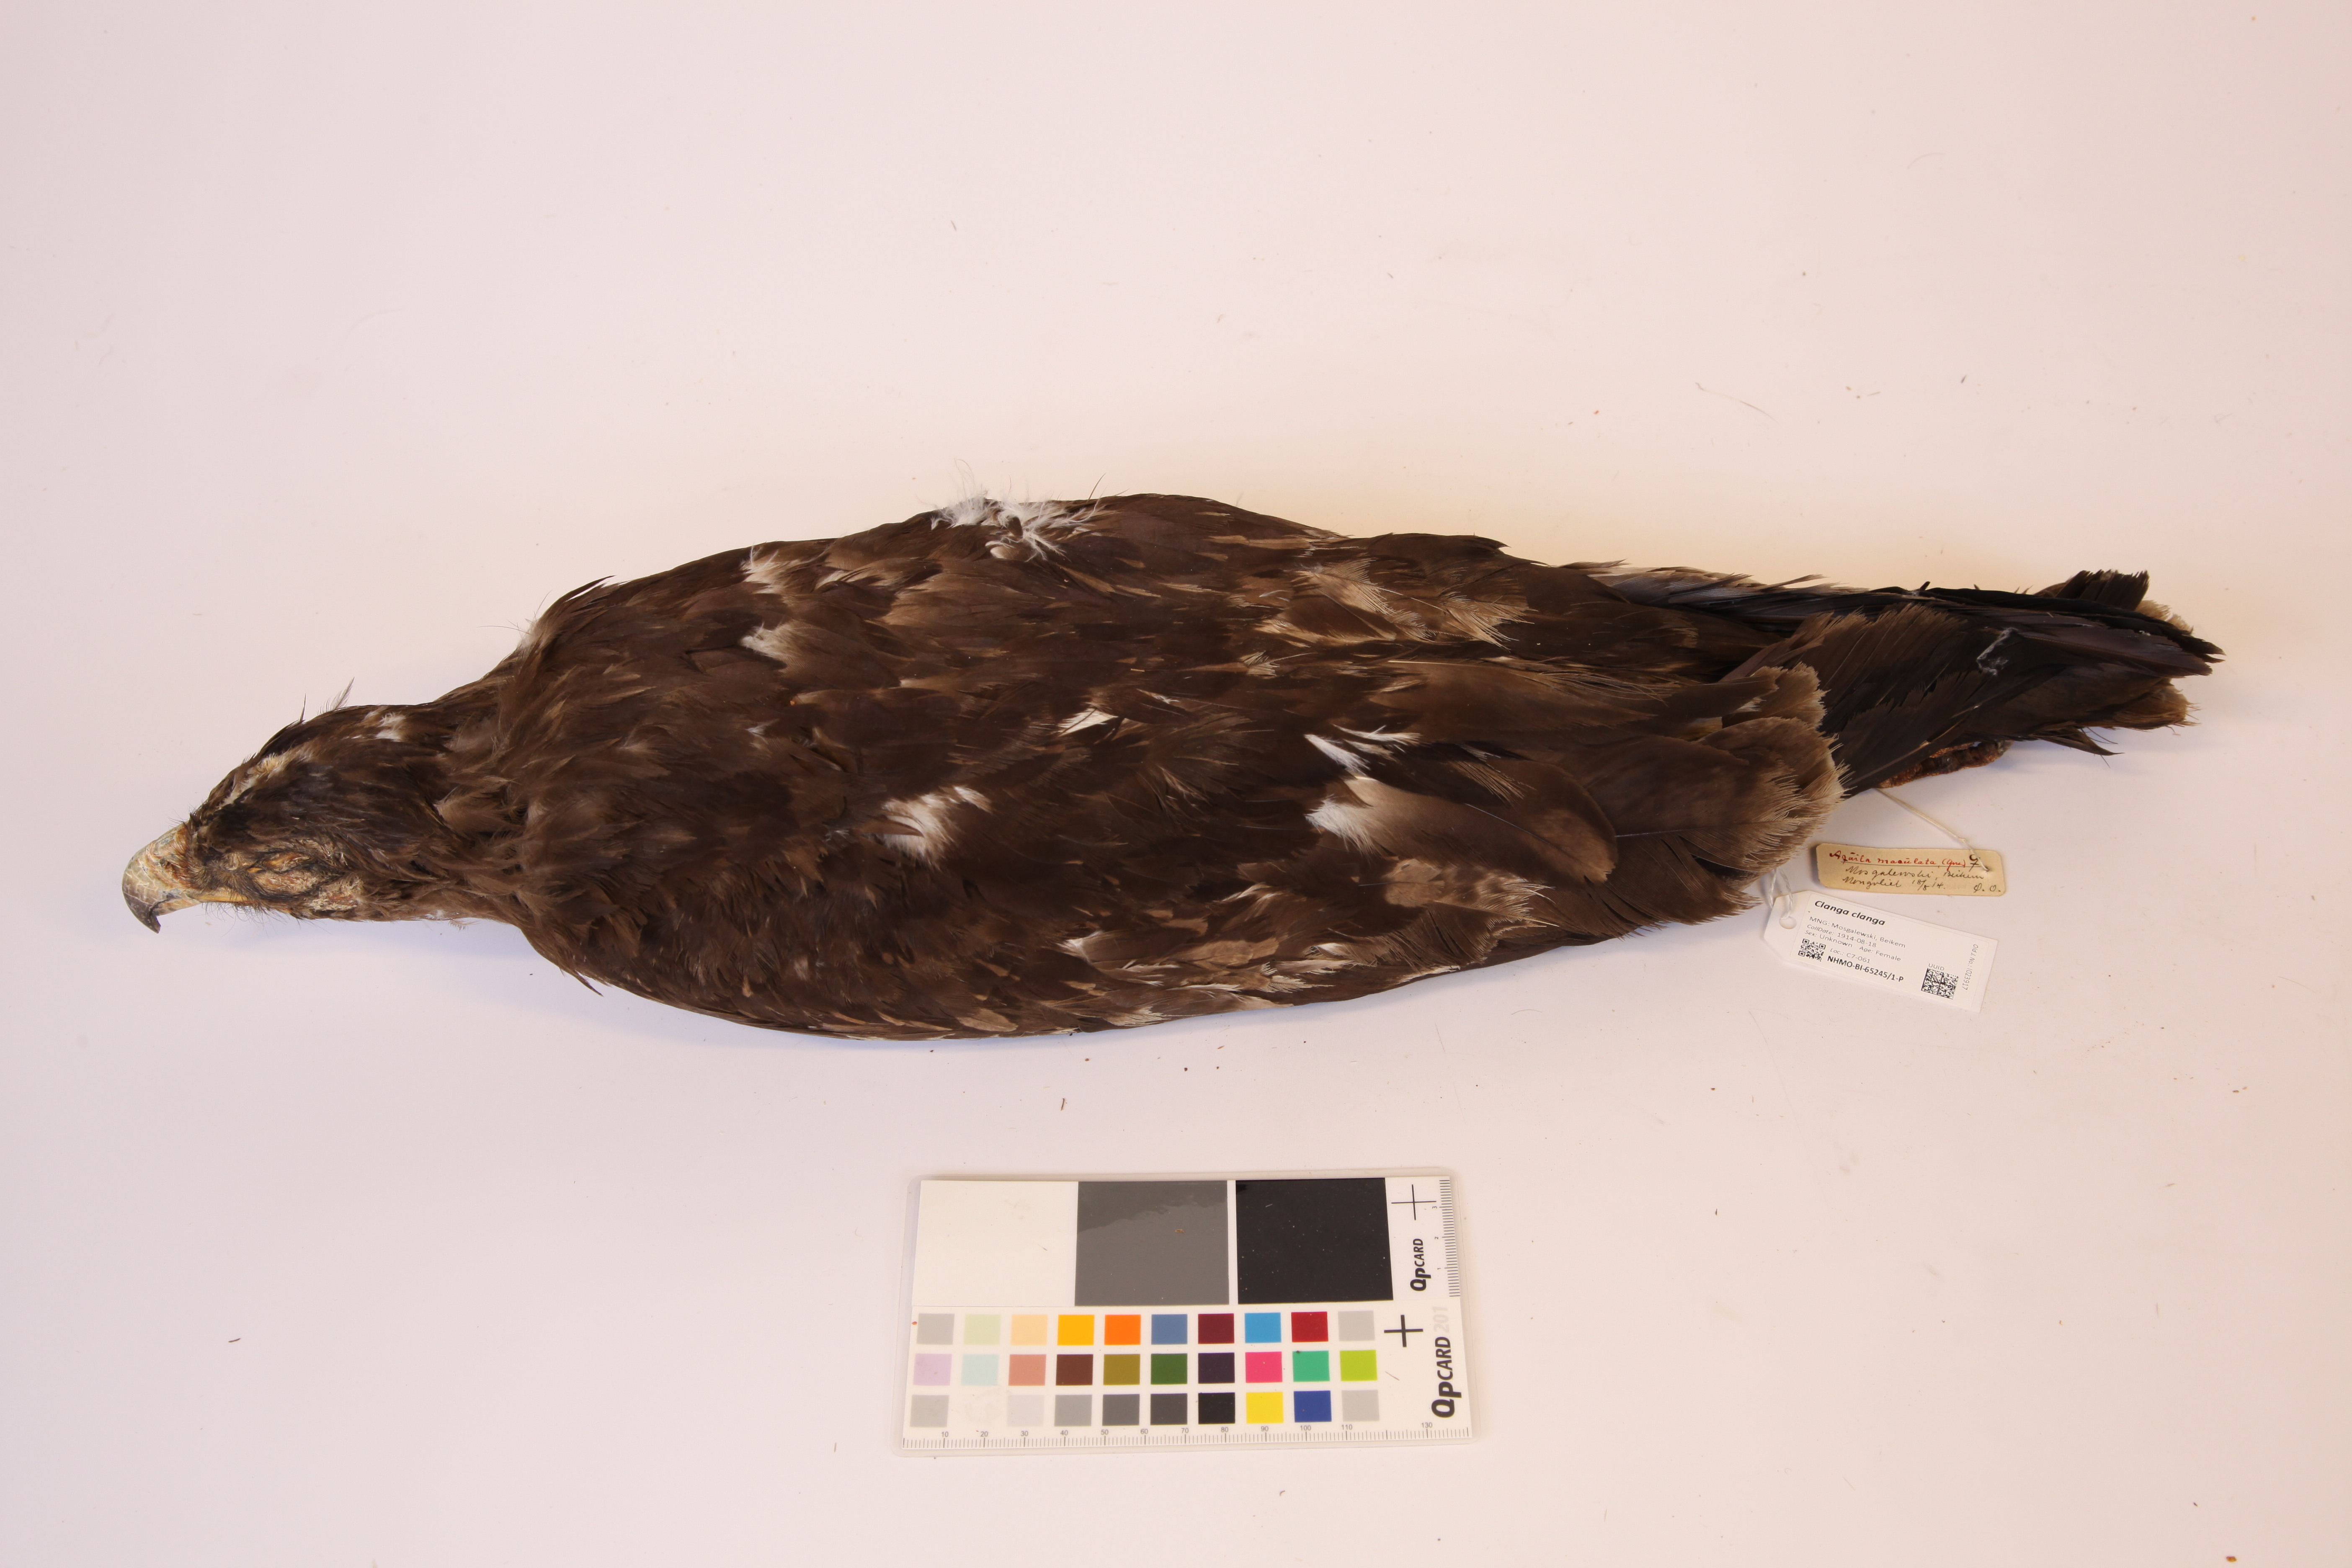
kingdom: Animalia
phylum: Chordata
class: Aves
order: Accipitriformes
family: Accipitridae
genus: Aquila
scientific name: Aquila clanga
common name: Greater spotted eagle
